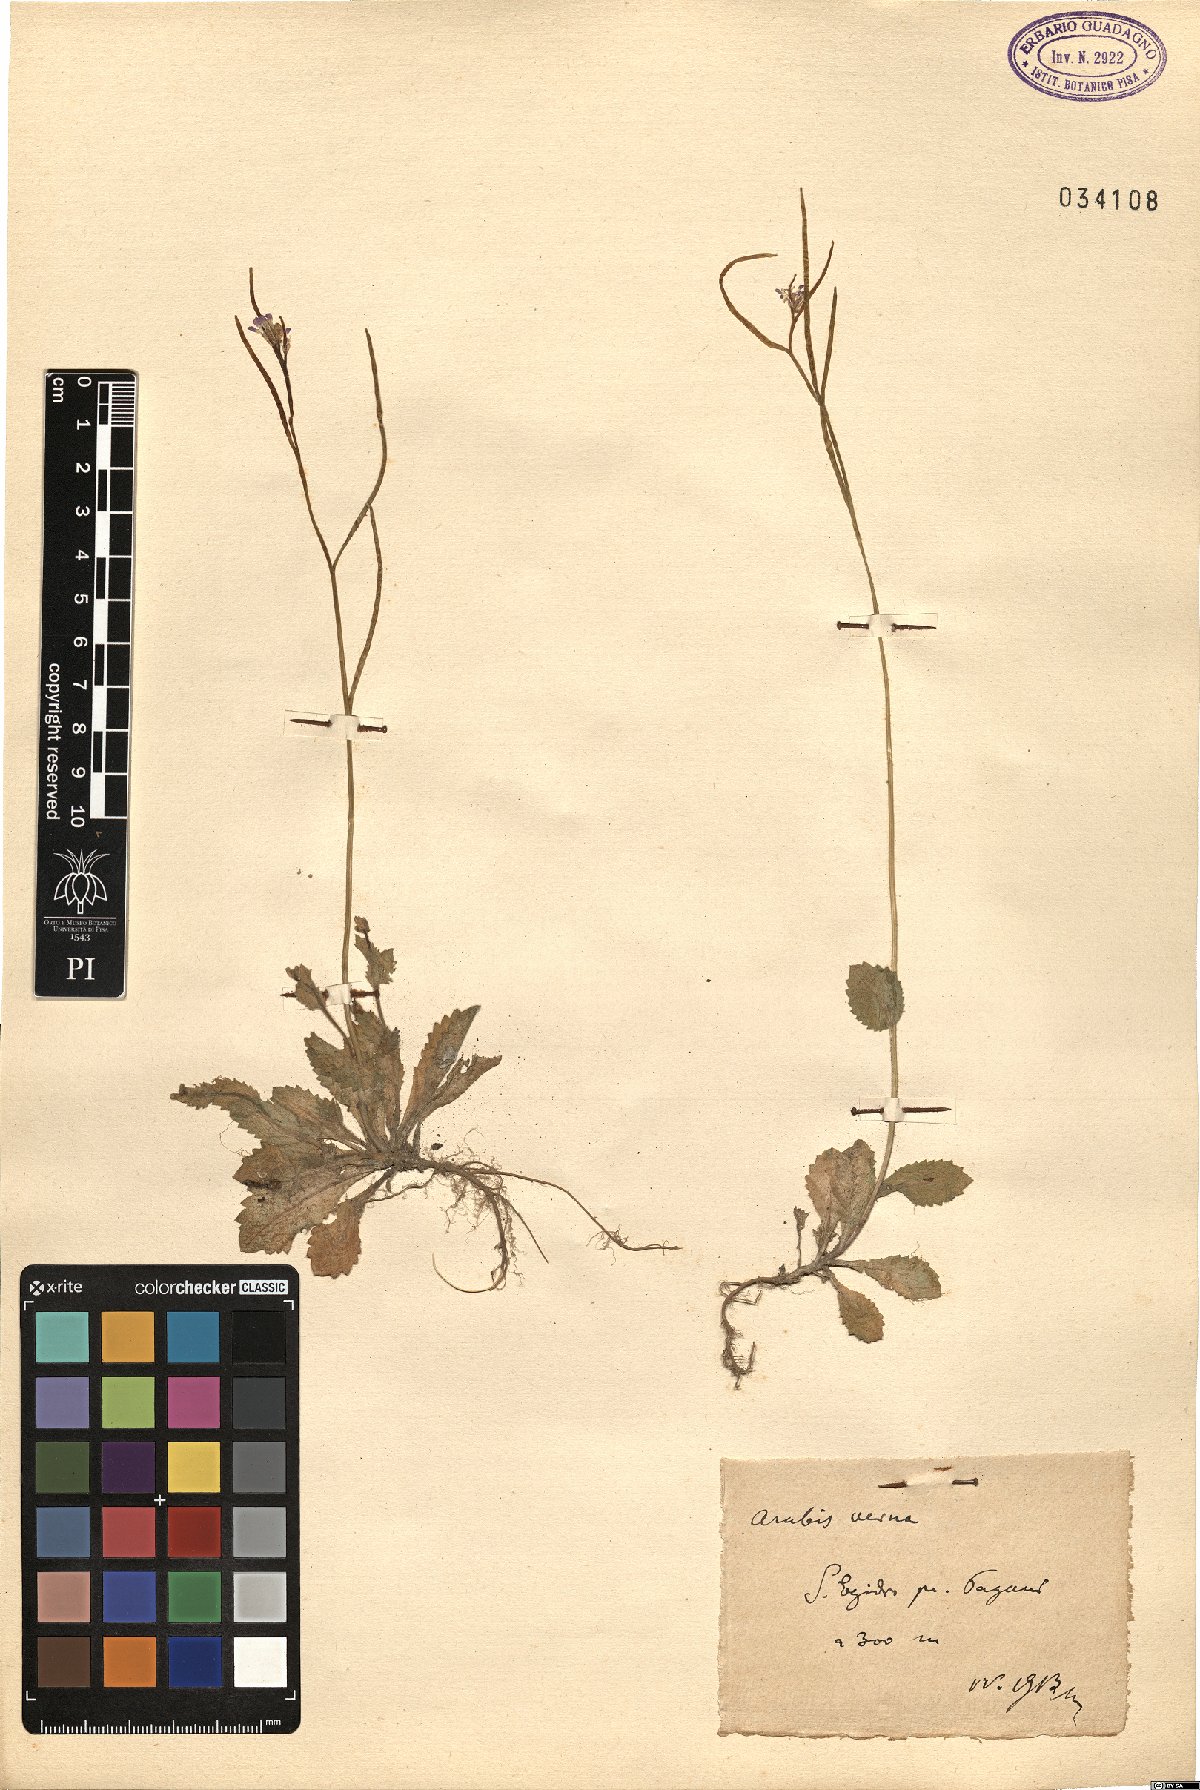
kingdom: Plantae
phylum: Tracheophyta
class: Magnoliopsida
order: Brassicales
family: Brassicaceae
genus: Arabis
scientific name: Arabis verna
